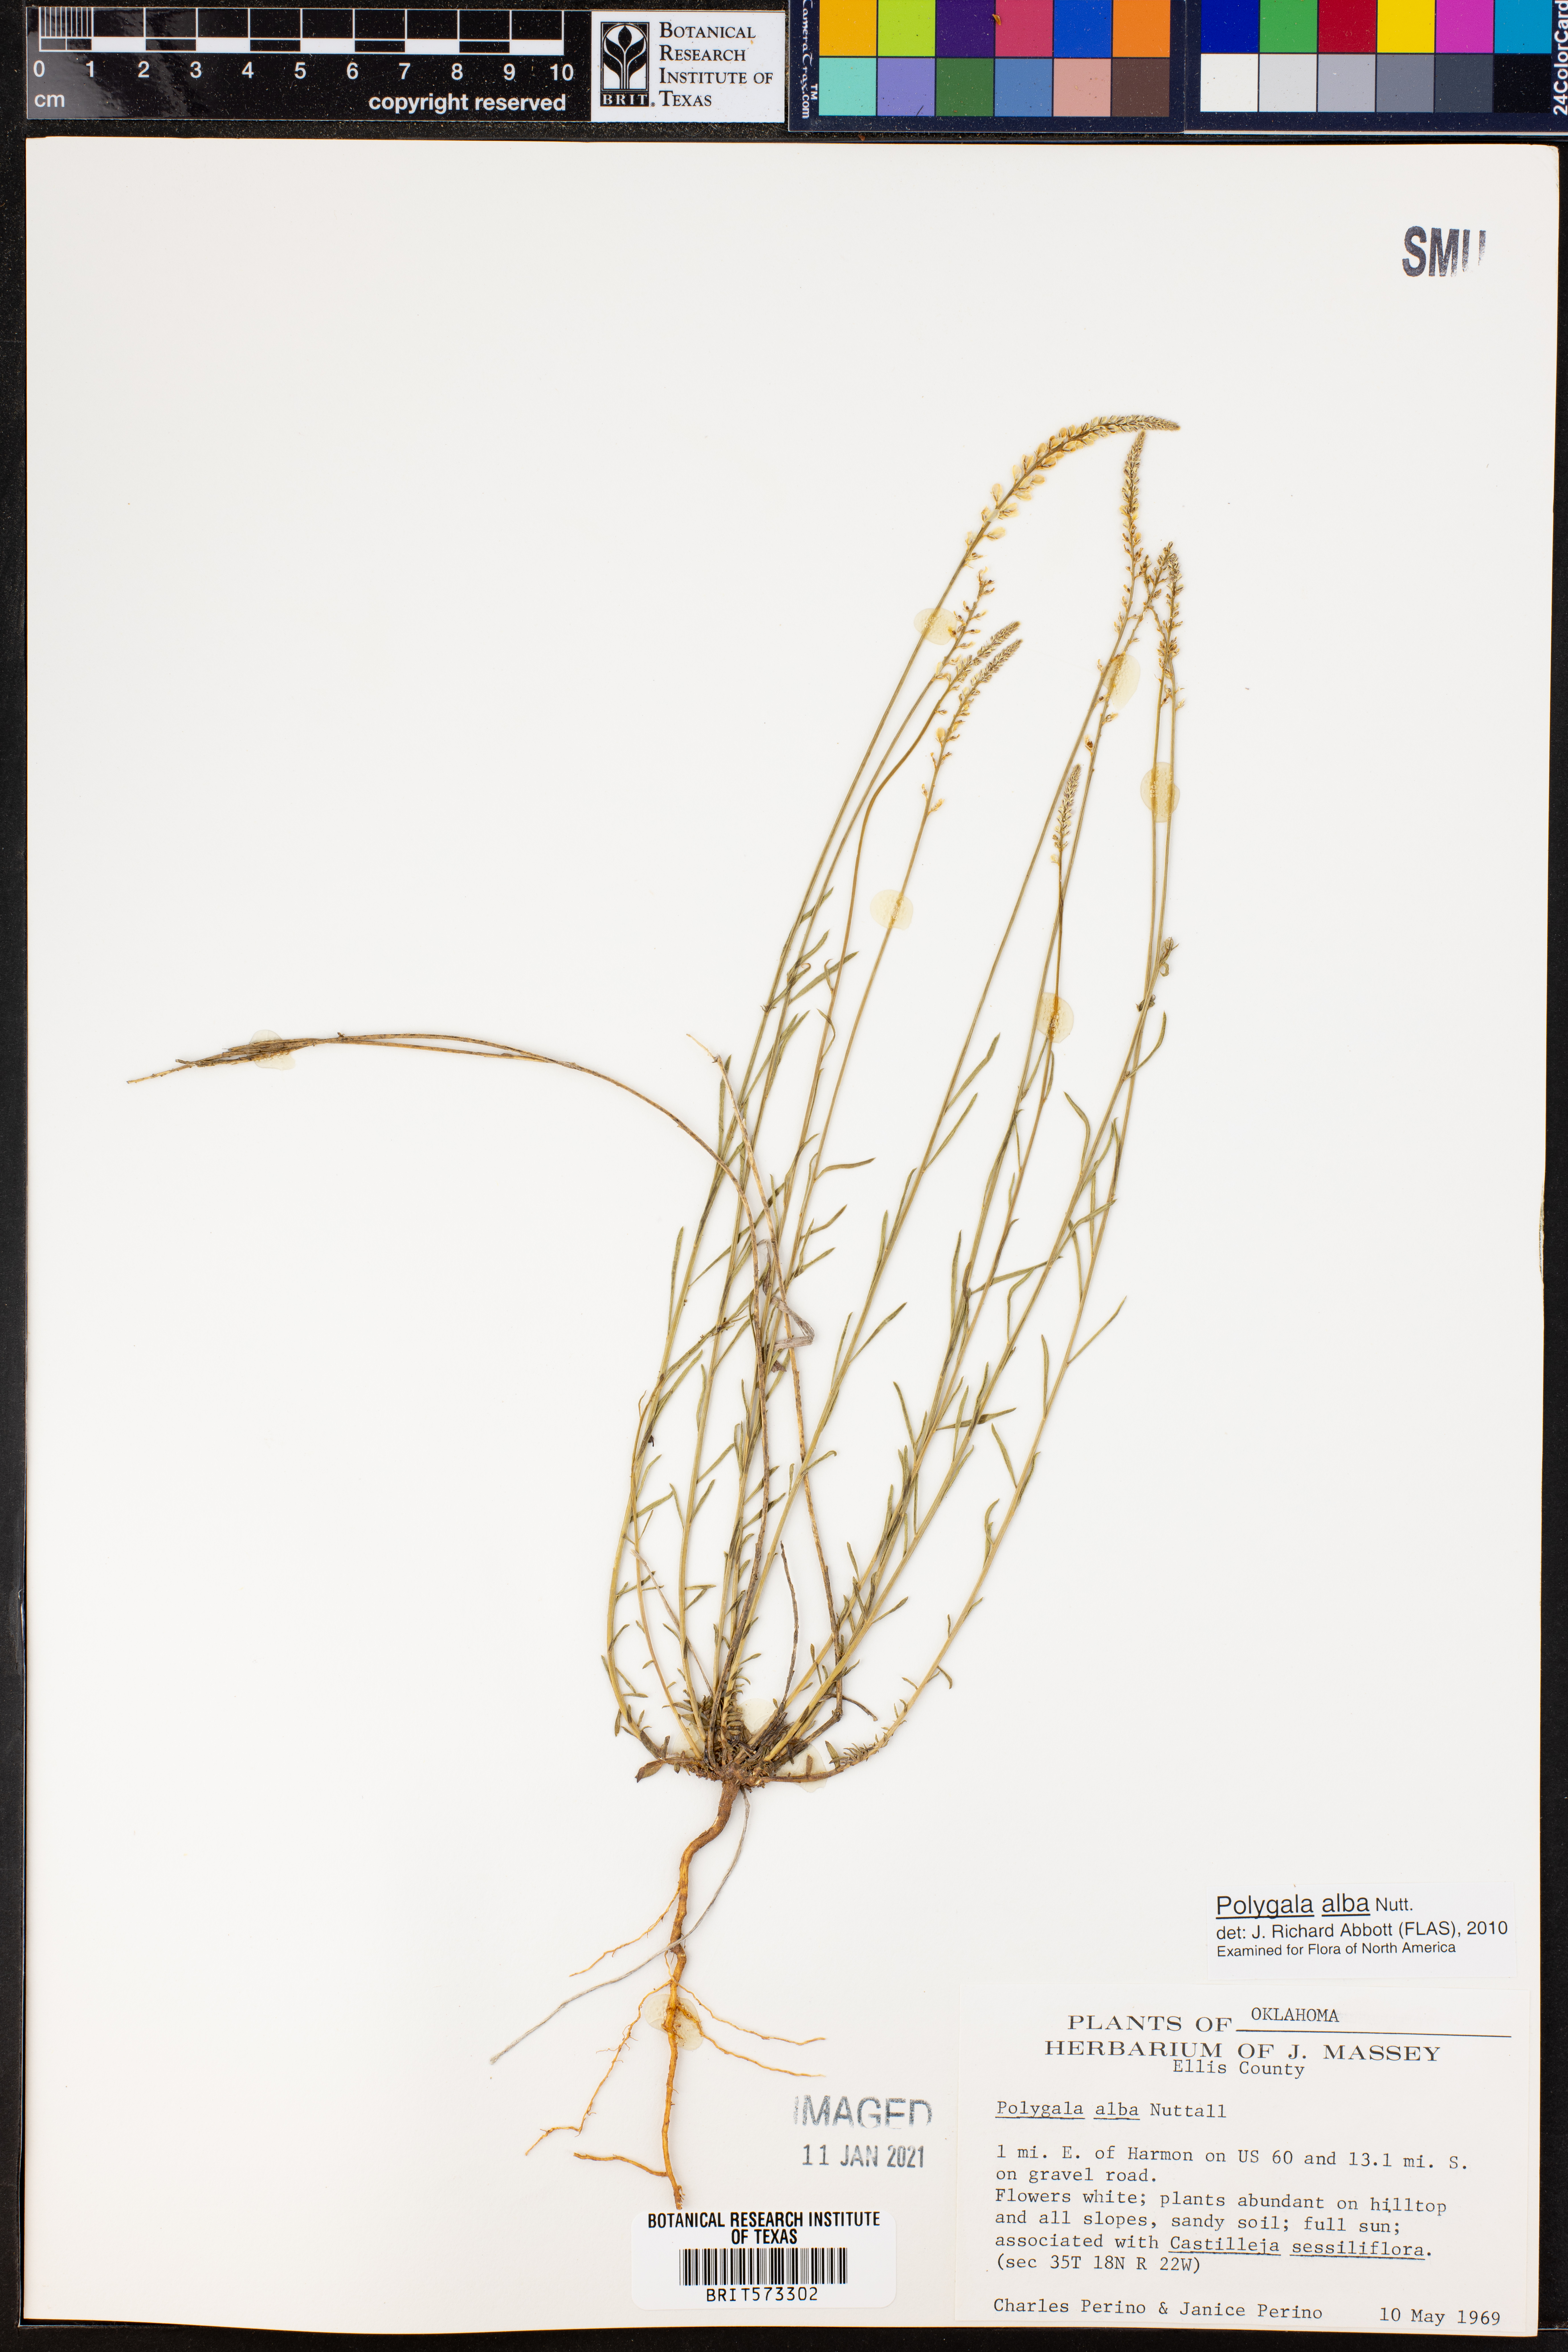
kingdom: Plantae
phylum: Tracheophyta
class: Magnoliopsida
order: Fabales
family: Polygalaceae
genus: Polygala
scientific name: Polygala alba
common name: White milkwort
